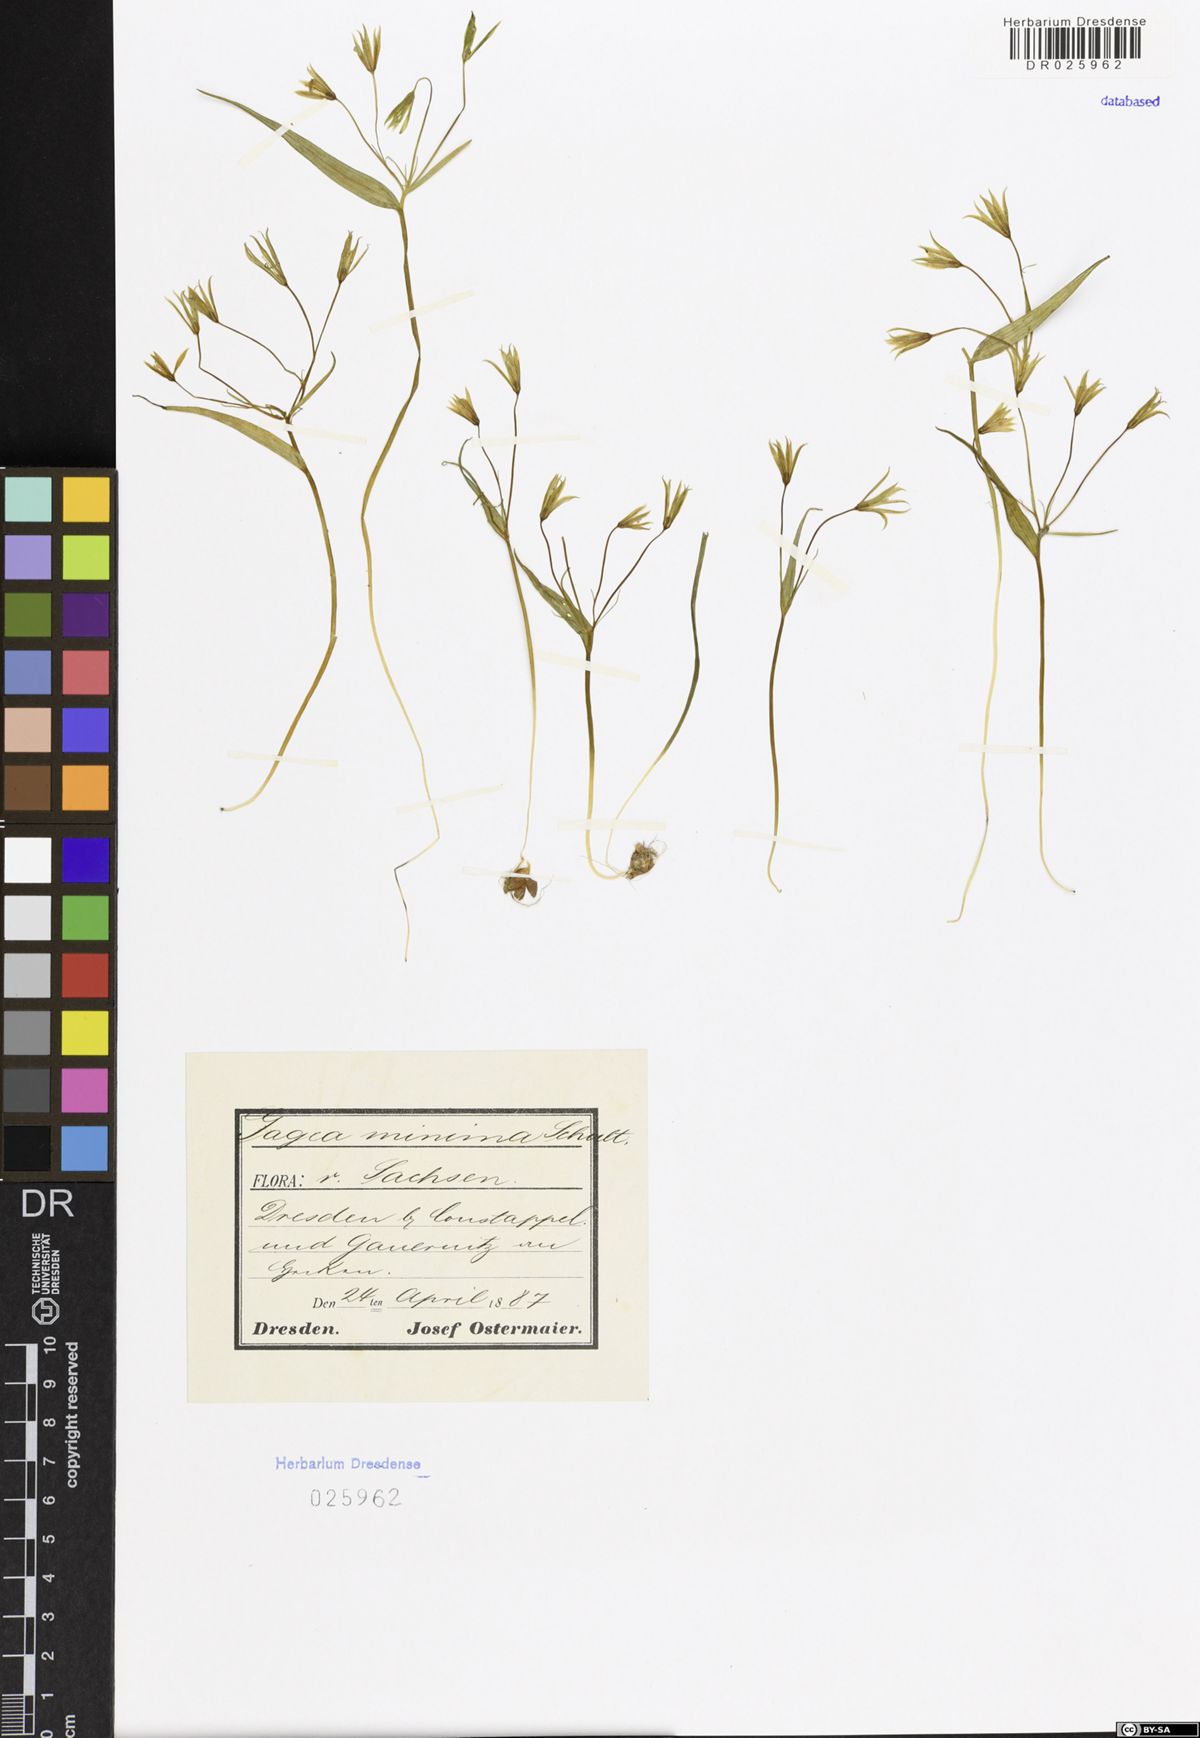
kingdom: Plantae
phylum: Tracheophyta
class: Liliopsida
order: Liliales
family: Liliaceae
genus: Gagea
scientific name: Gagea minima
